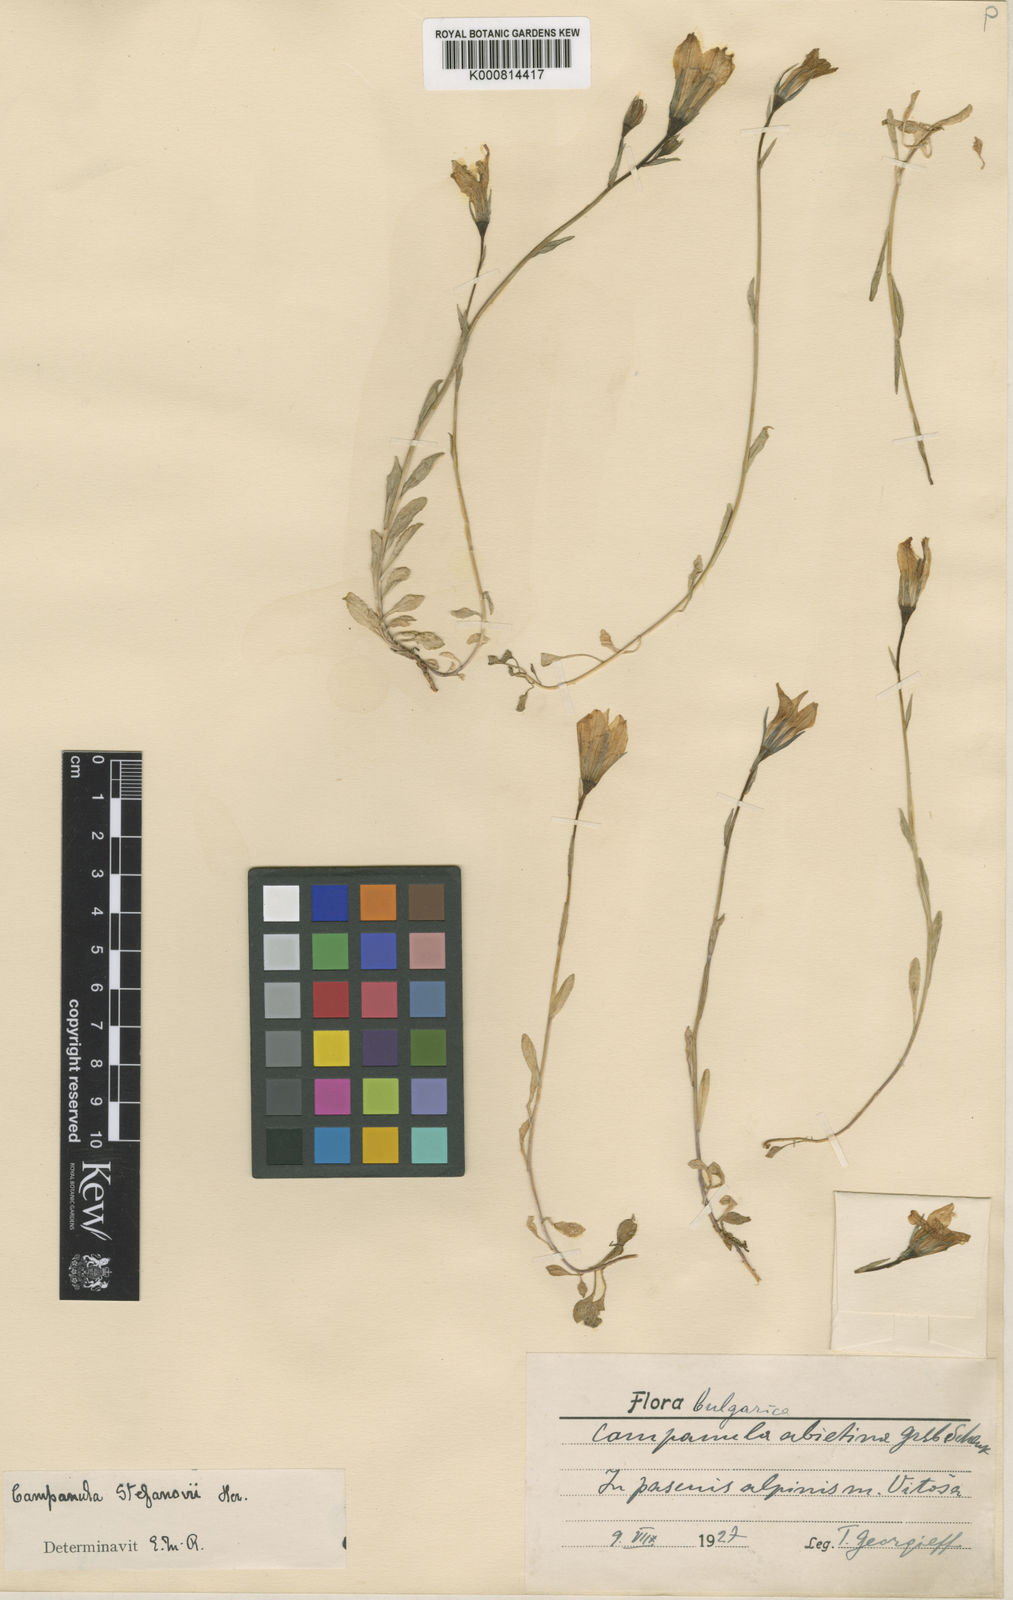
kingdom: Plantae
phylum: Tracheophyta
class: Magnoliopsida
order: Asterales
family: Campanulaceae
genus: Campanula
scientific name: Campanula patula
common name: Spreading bellflower
